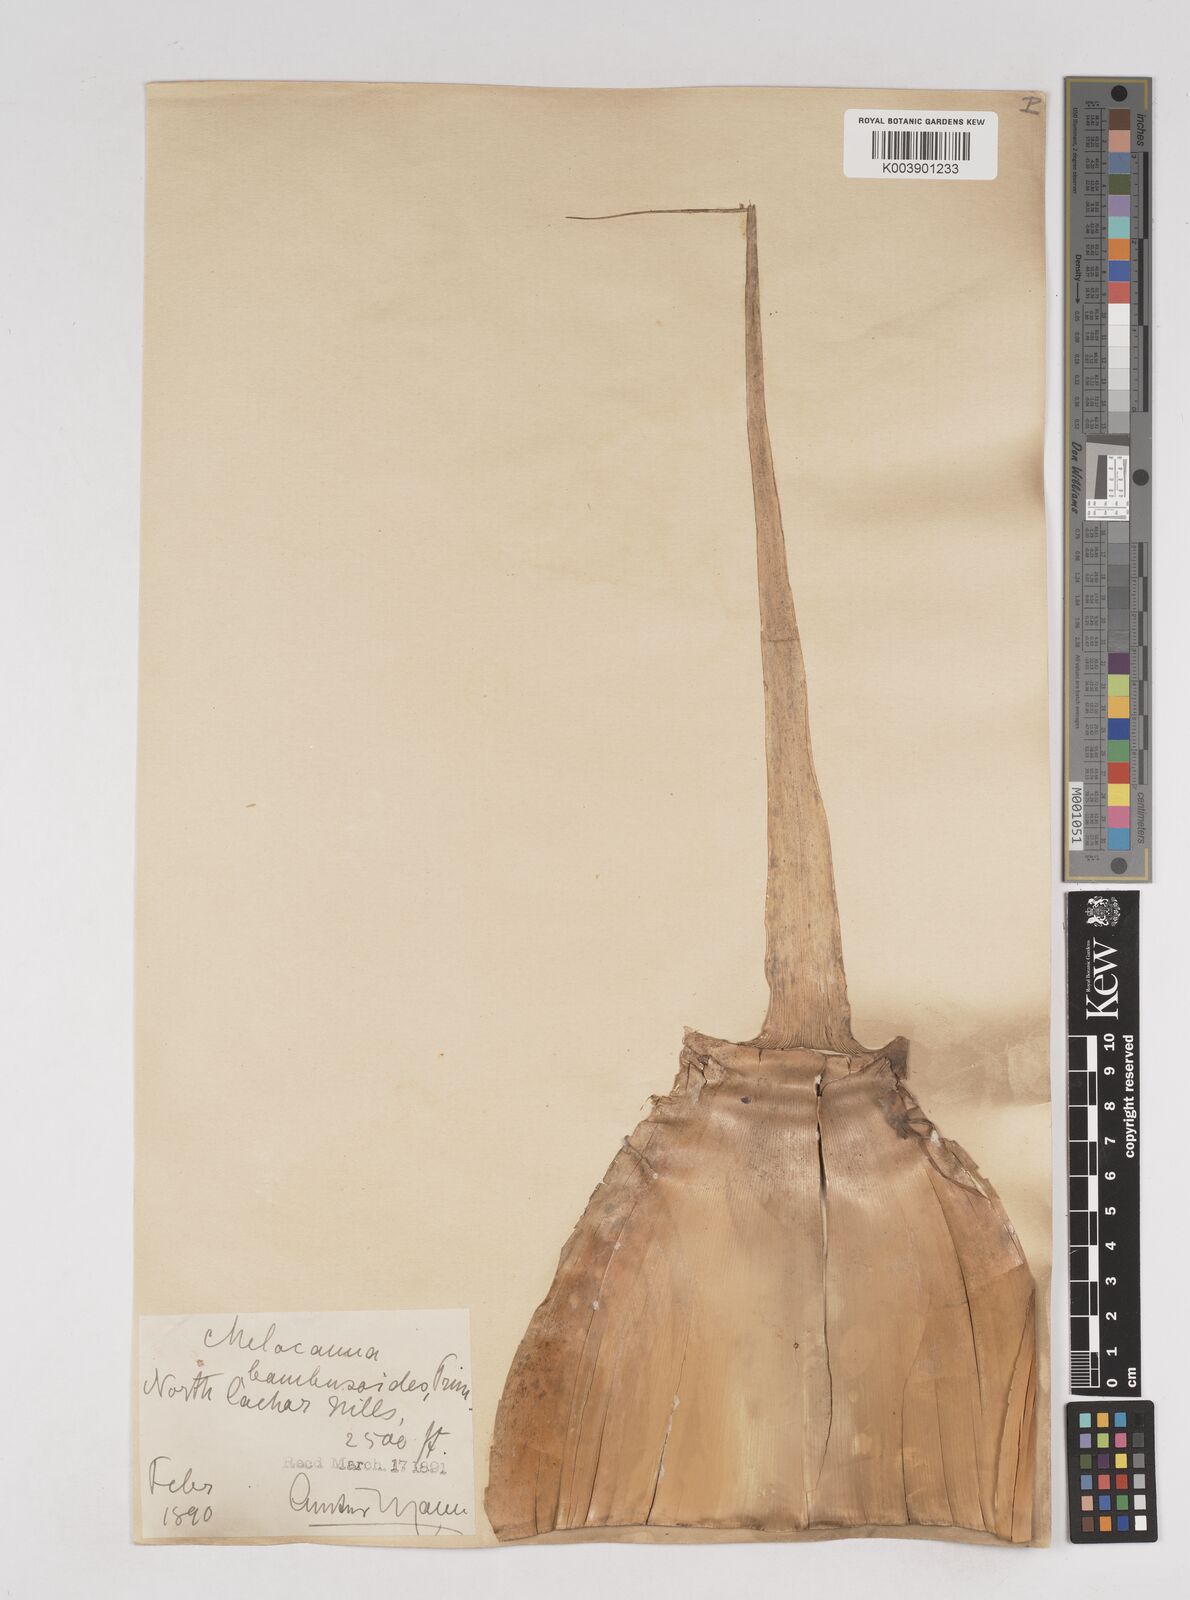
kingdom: Plantae
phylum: Tracheophyta
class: Liliopsida
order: Poales
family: Poaceae
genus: Melocanna
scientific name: Melocanna baccifera
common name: Berry bamboo
